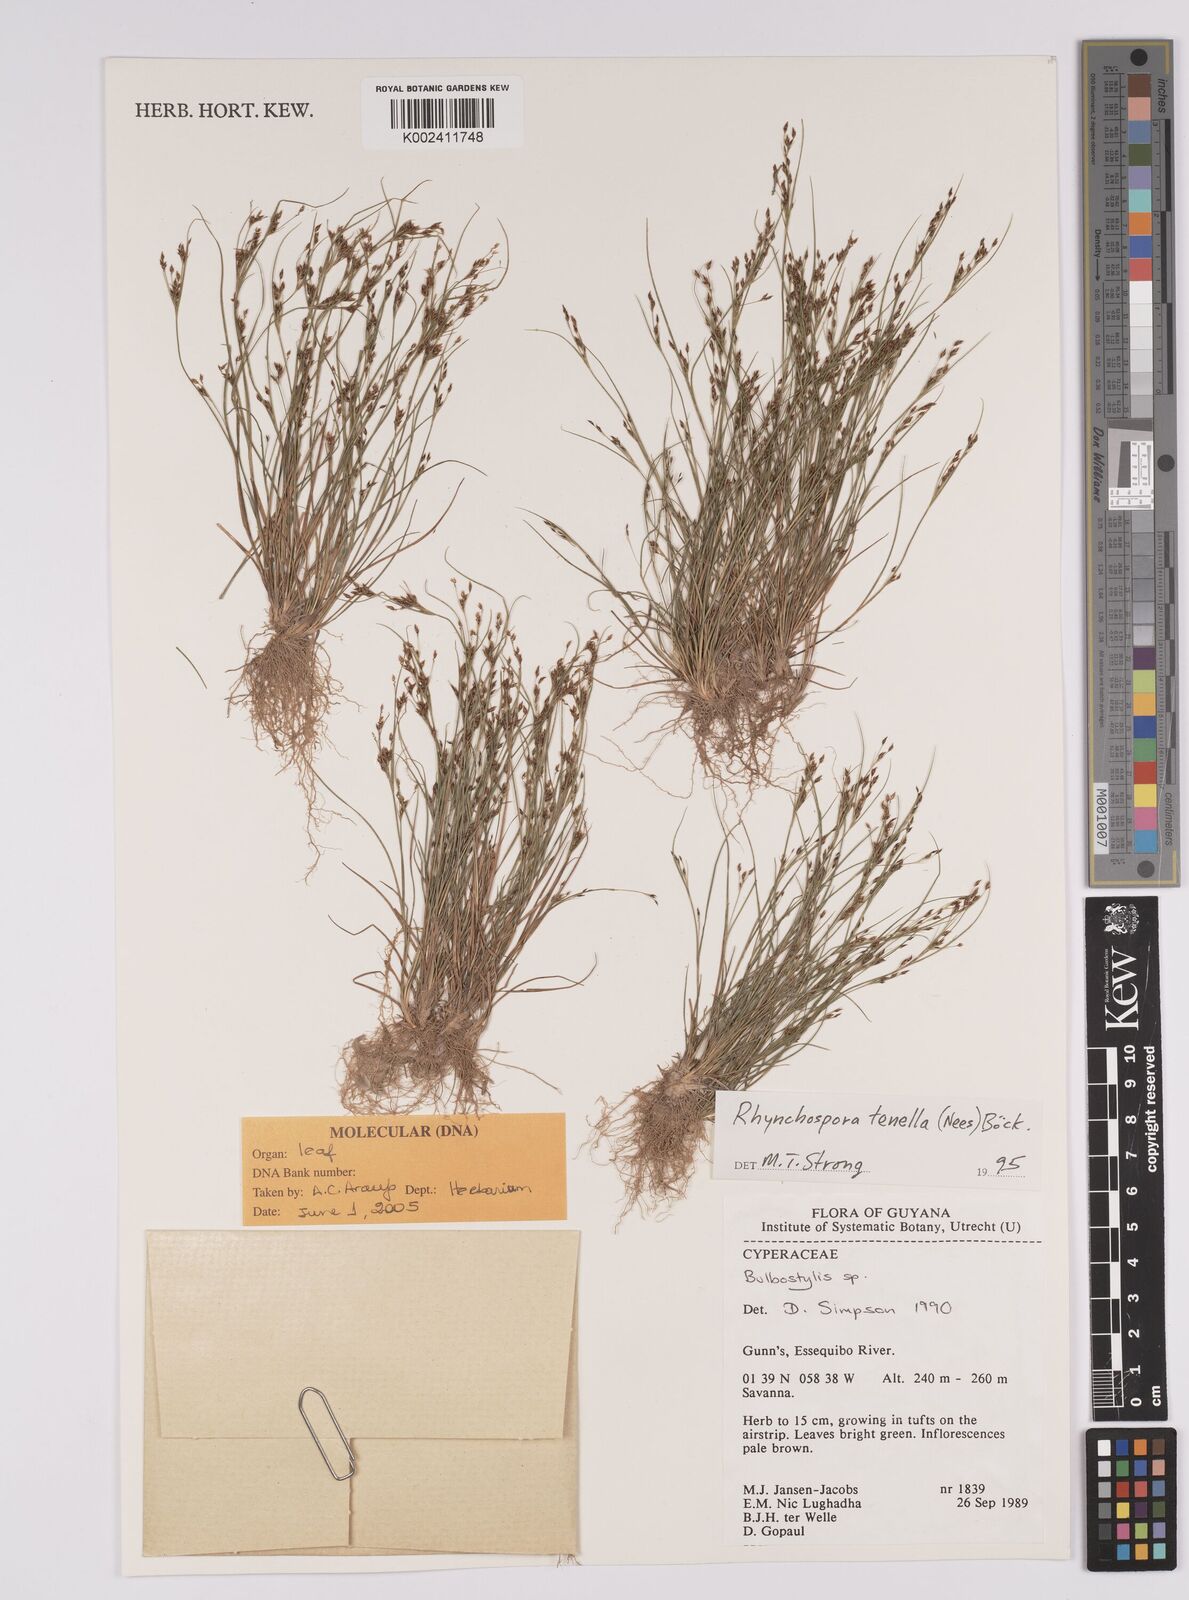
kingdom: Plantae
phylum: Tracheophyta
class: Liliopsida
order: Poales
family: Cyperaceae
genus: Rhynchospora
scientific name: Rhynchospora tenella
